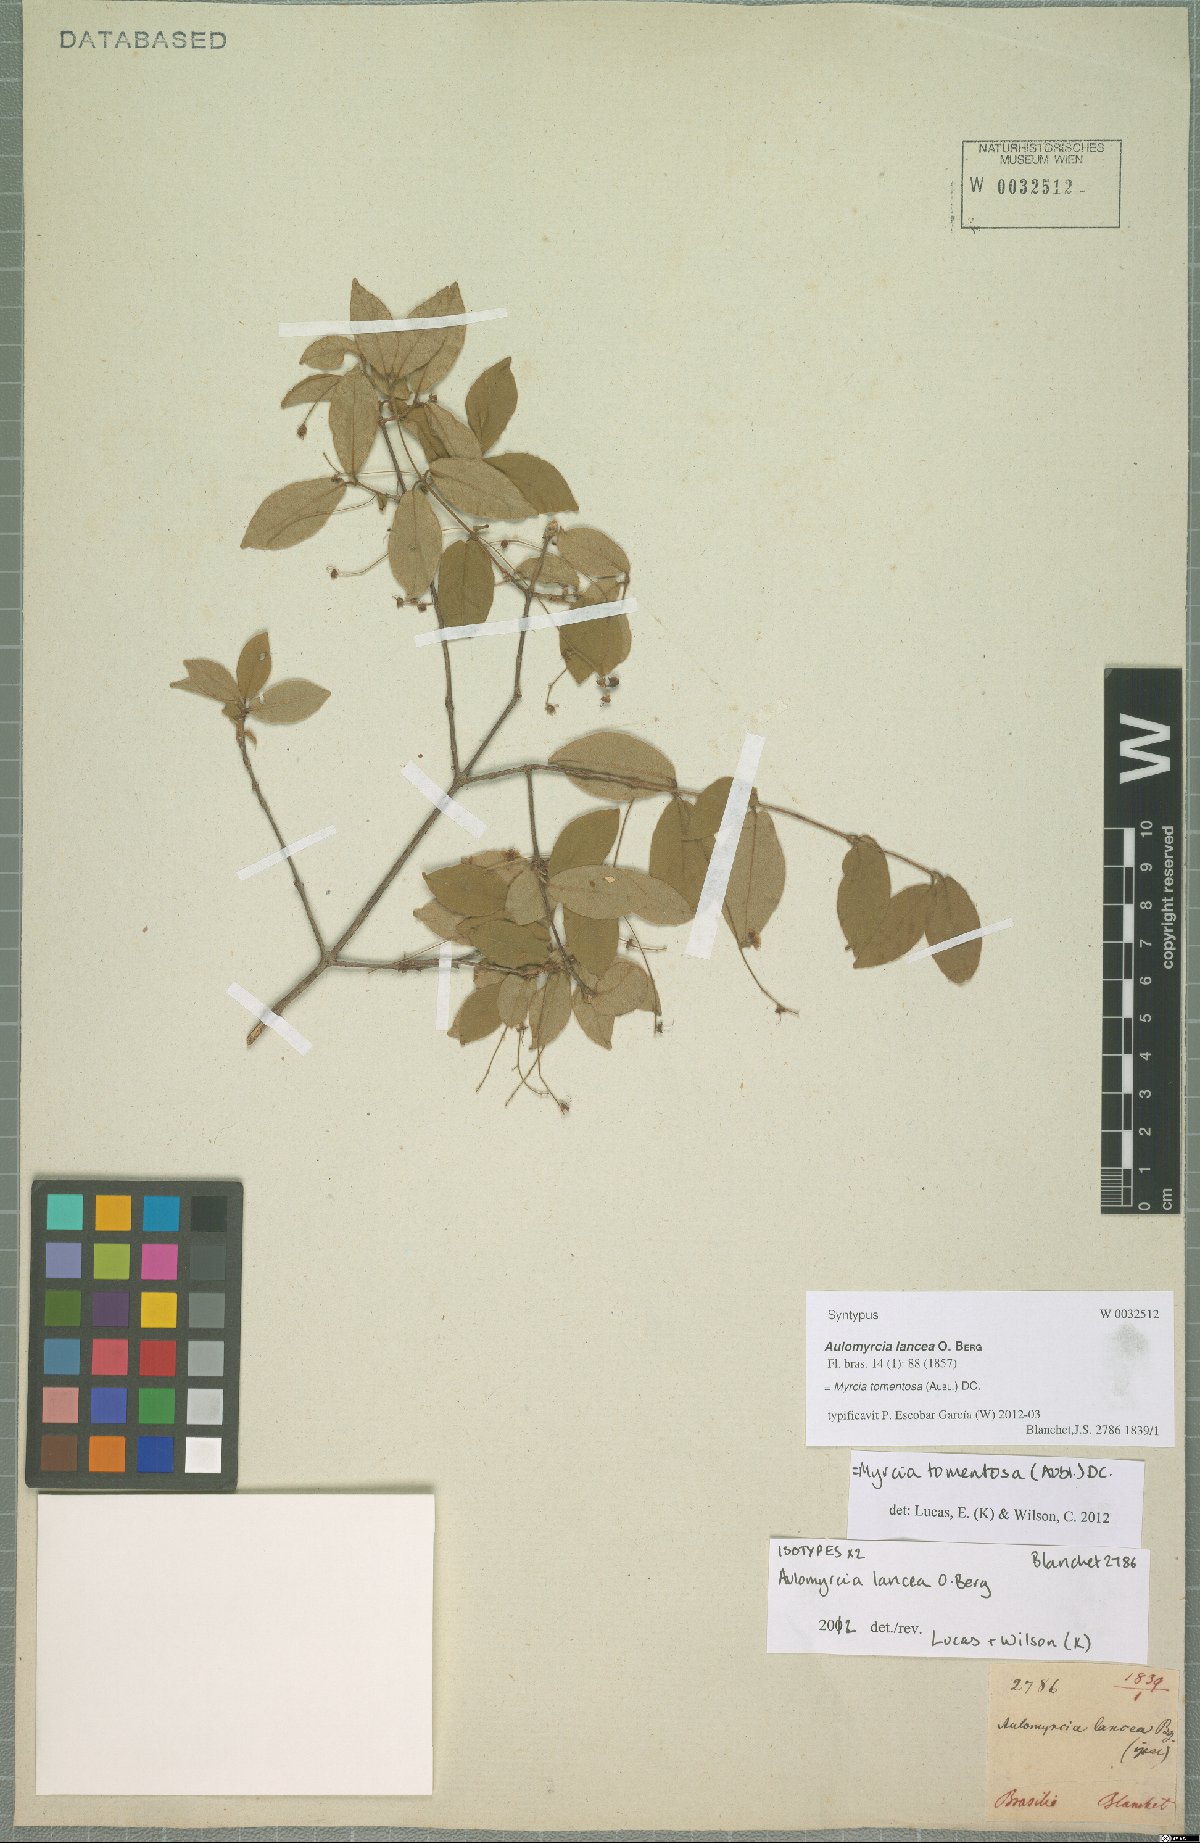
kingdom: Plantae
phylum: Tracheophyta
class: Magnoliopsida
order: Myrtales
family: Myrtaceae
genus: Myrcia
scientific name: Myrcia tomentosa
